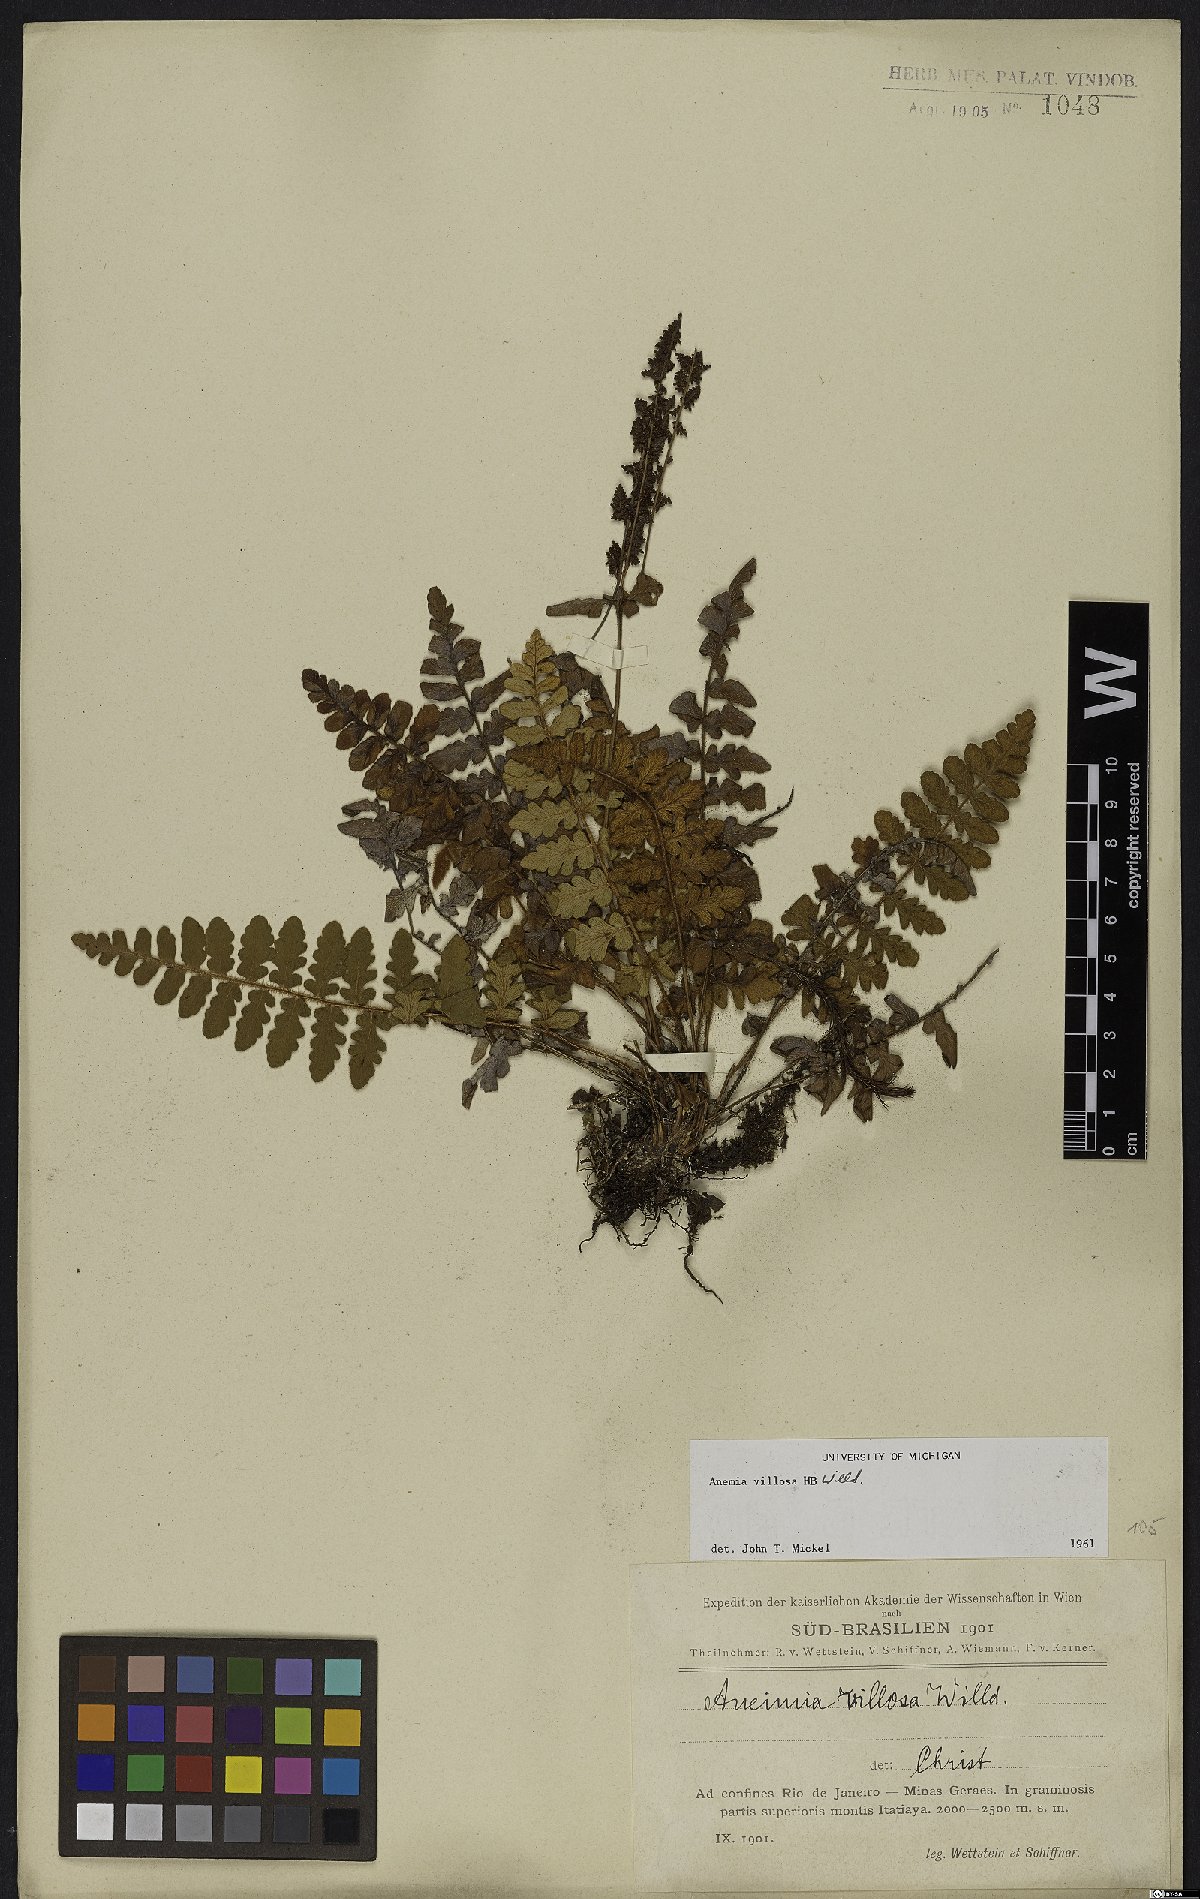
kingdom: Plantae
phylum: Tracheophyta
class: Polypodiopsida
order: Schizaeales
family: Anemiaceae
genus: Anemia
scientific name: Anemia villosa
